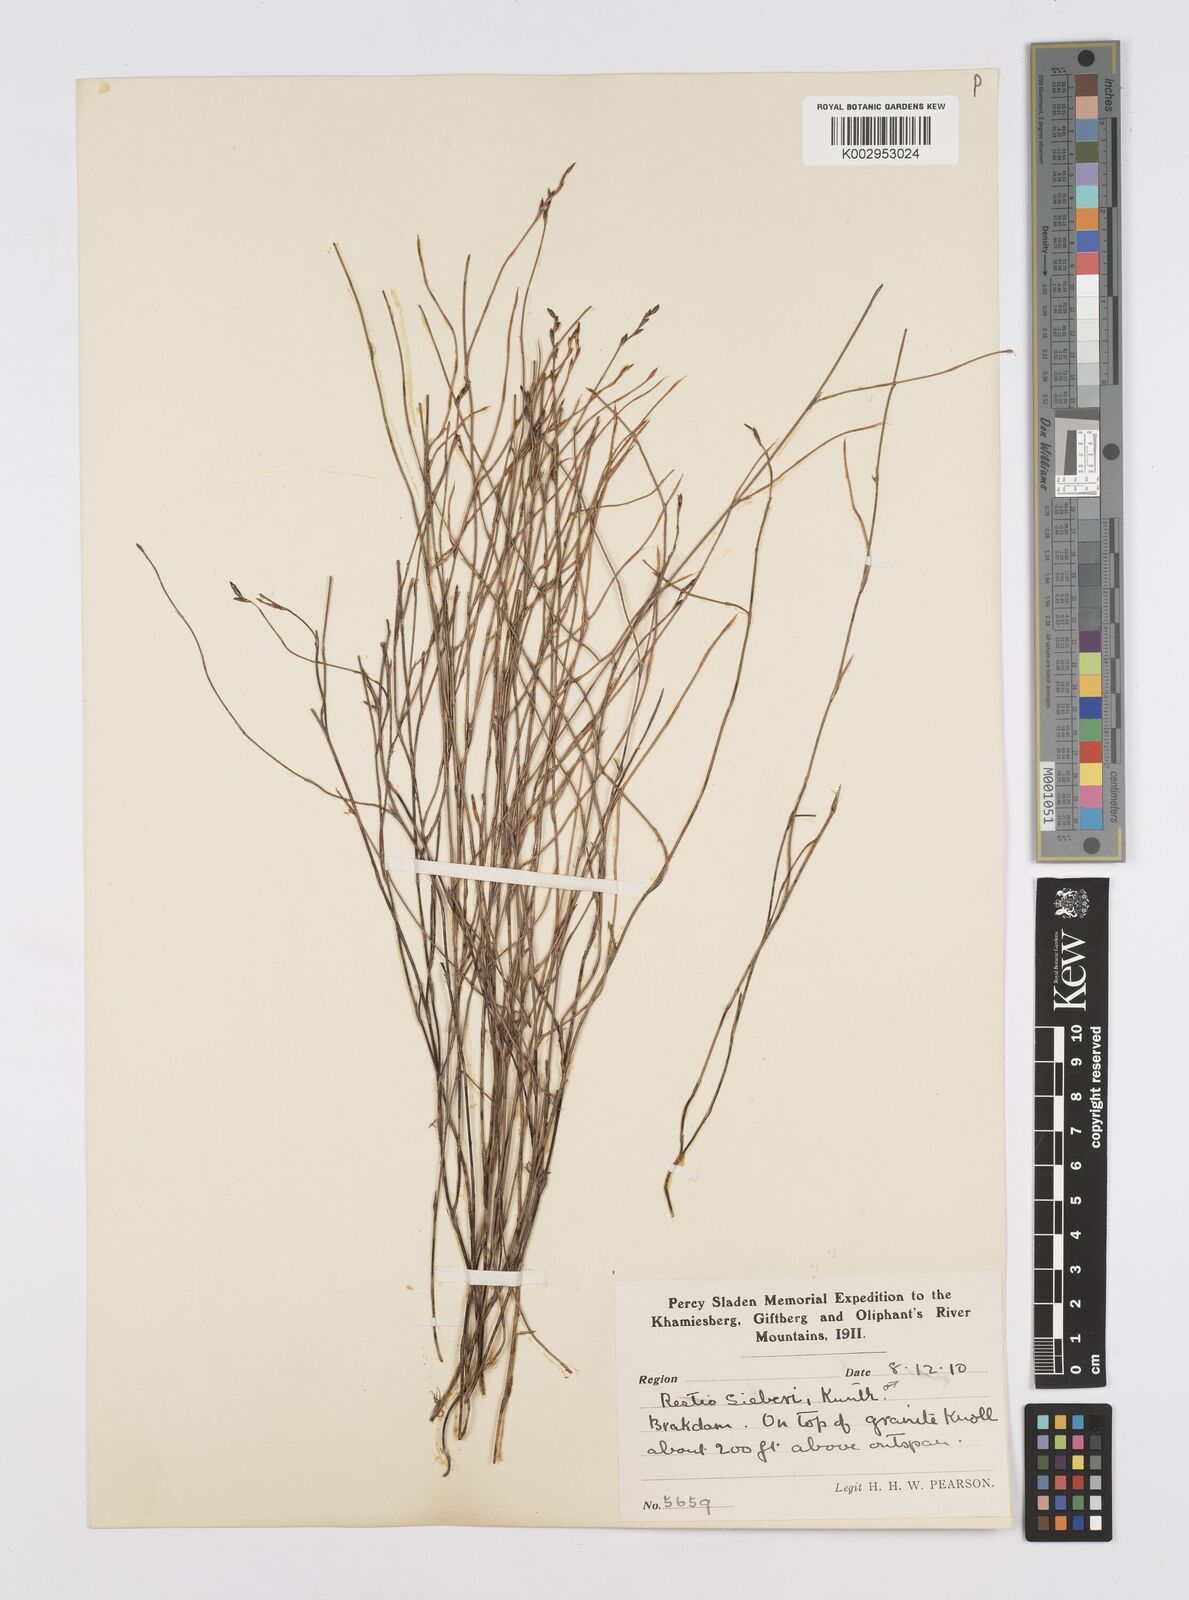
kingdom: Plantae
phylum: Tracheophyta
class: Liliopsida
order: Poales
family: Restionaceae
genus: Restio
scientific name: Restio sieberi
